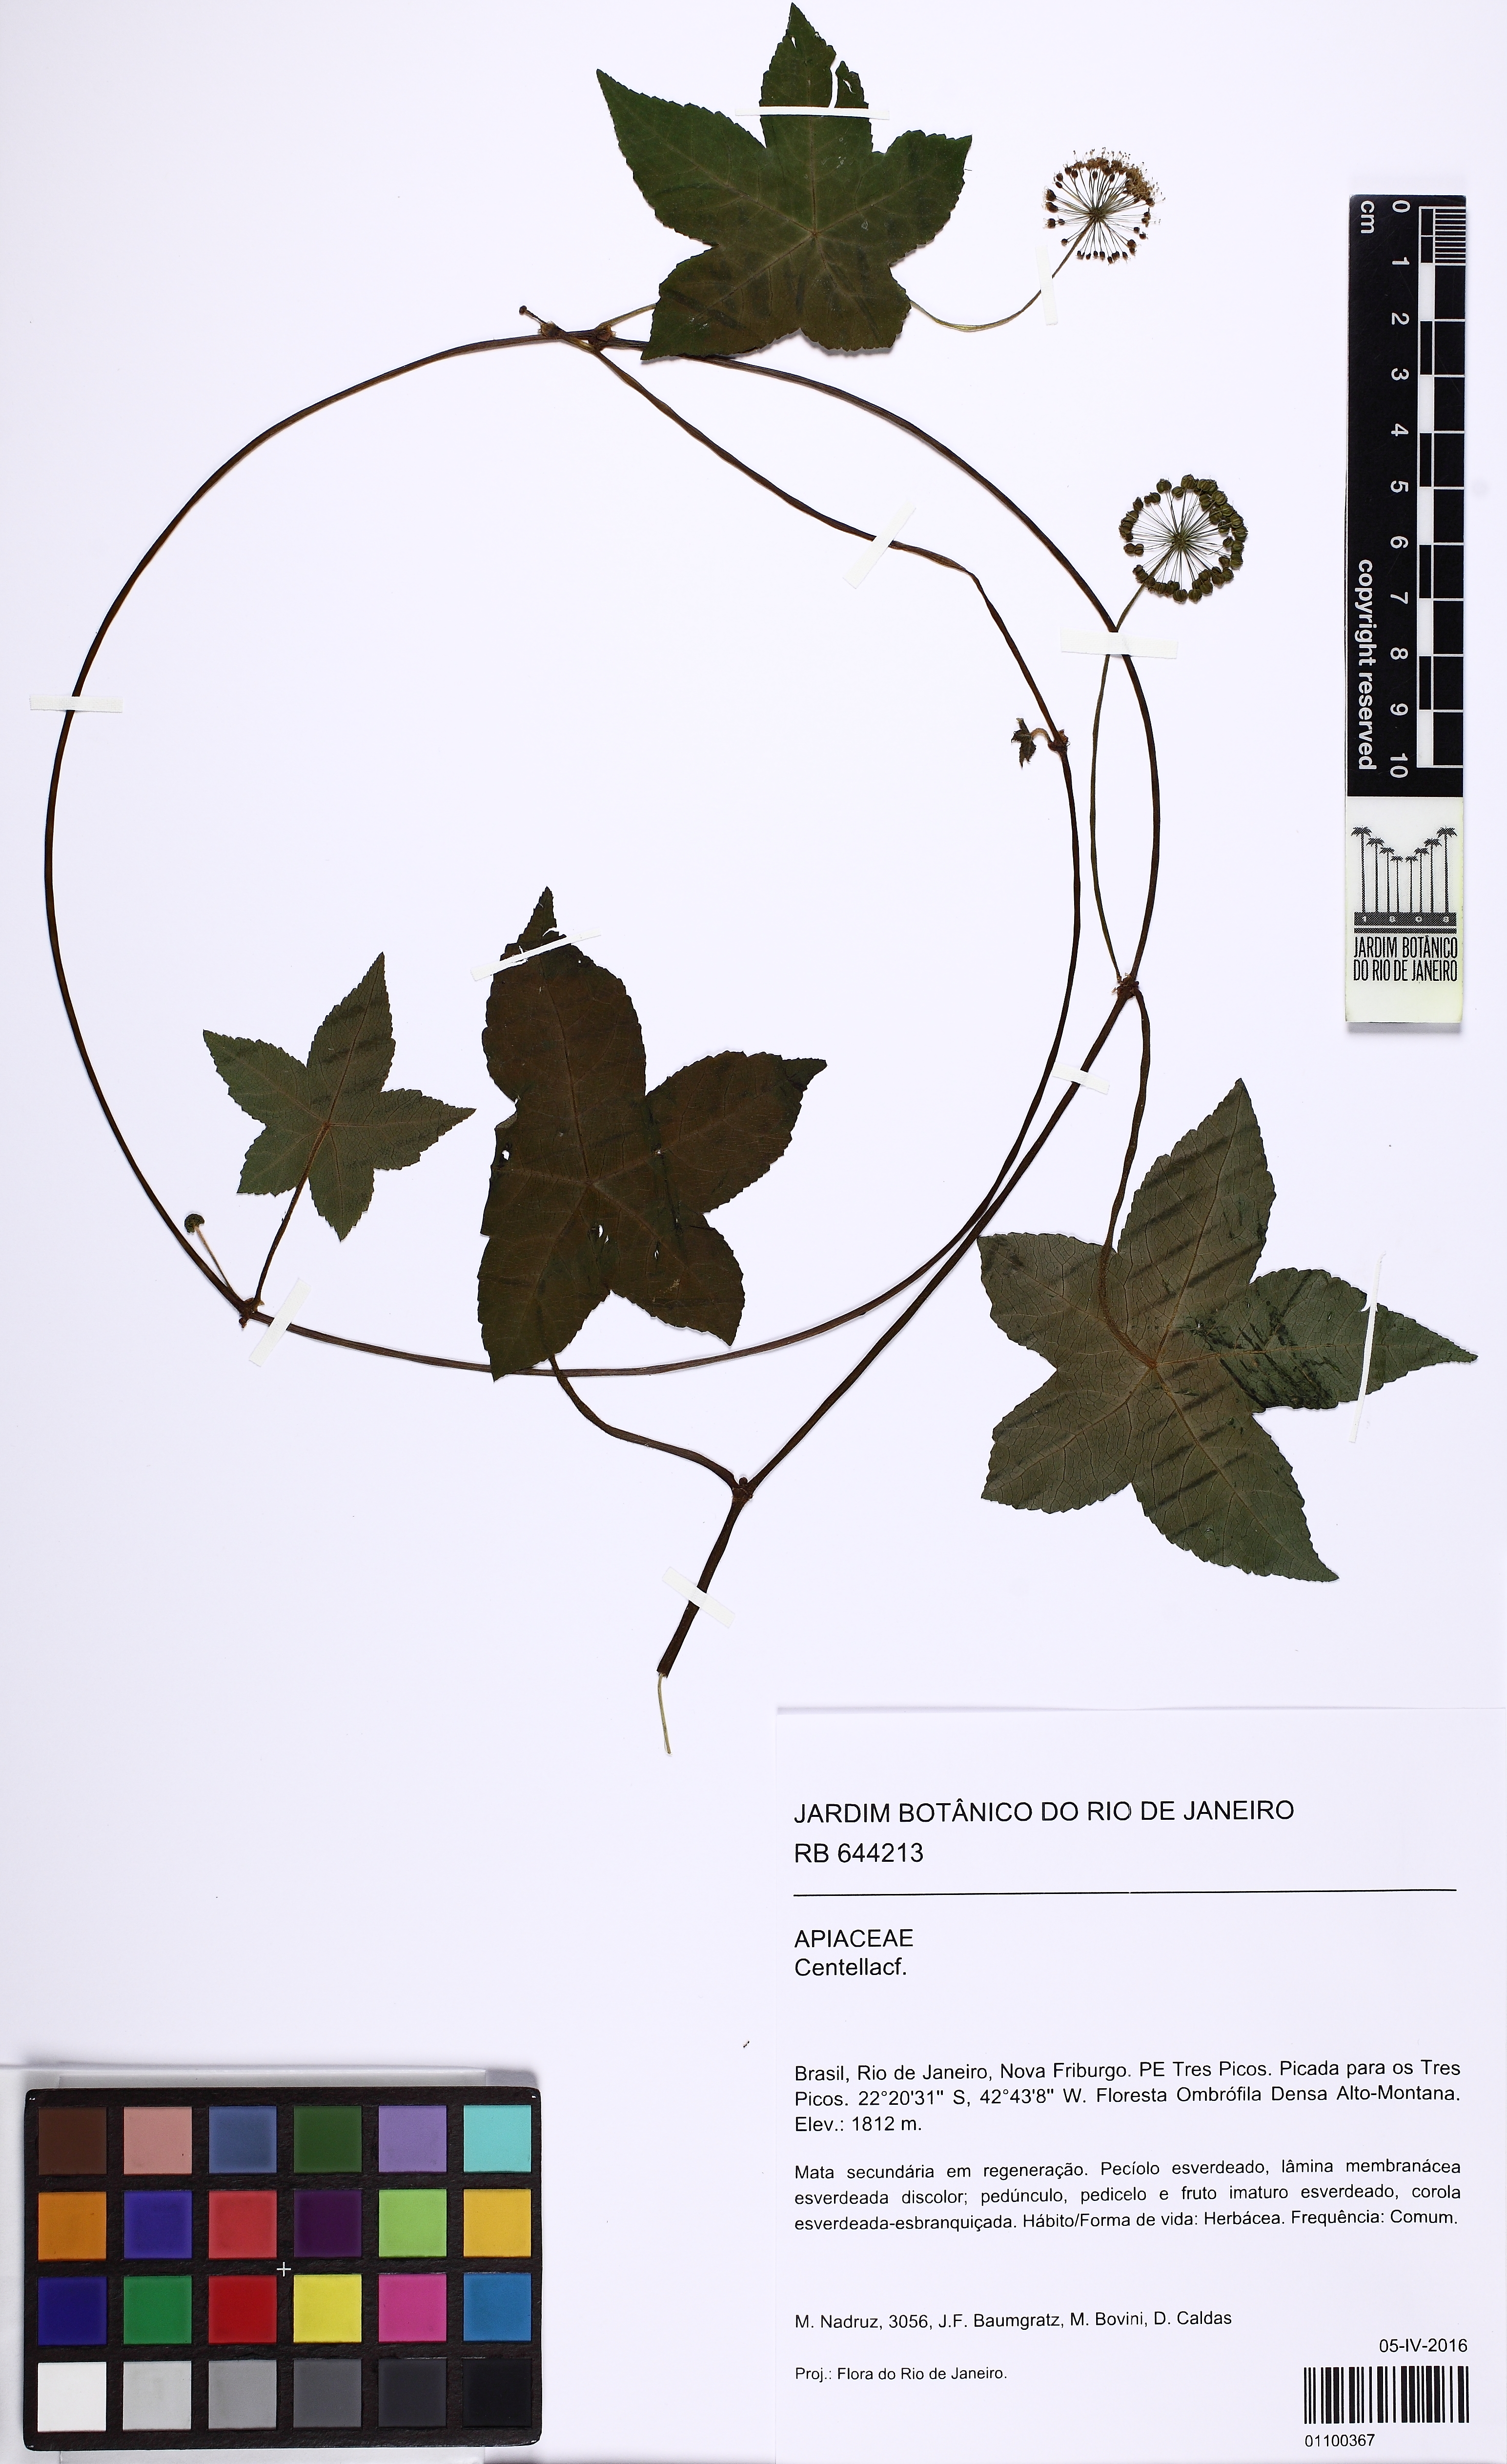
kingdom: Plantae
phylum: Tracheophyta
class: Magnoliopsida
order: Apiales
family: Apiaceae
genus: Centella
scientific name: Centella
